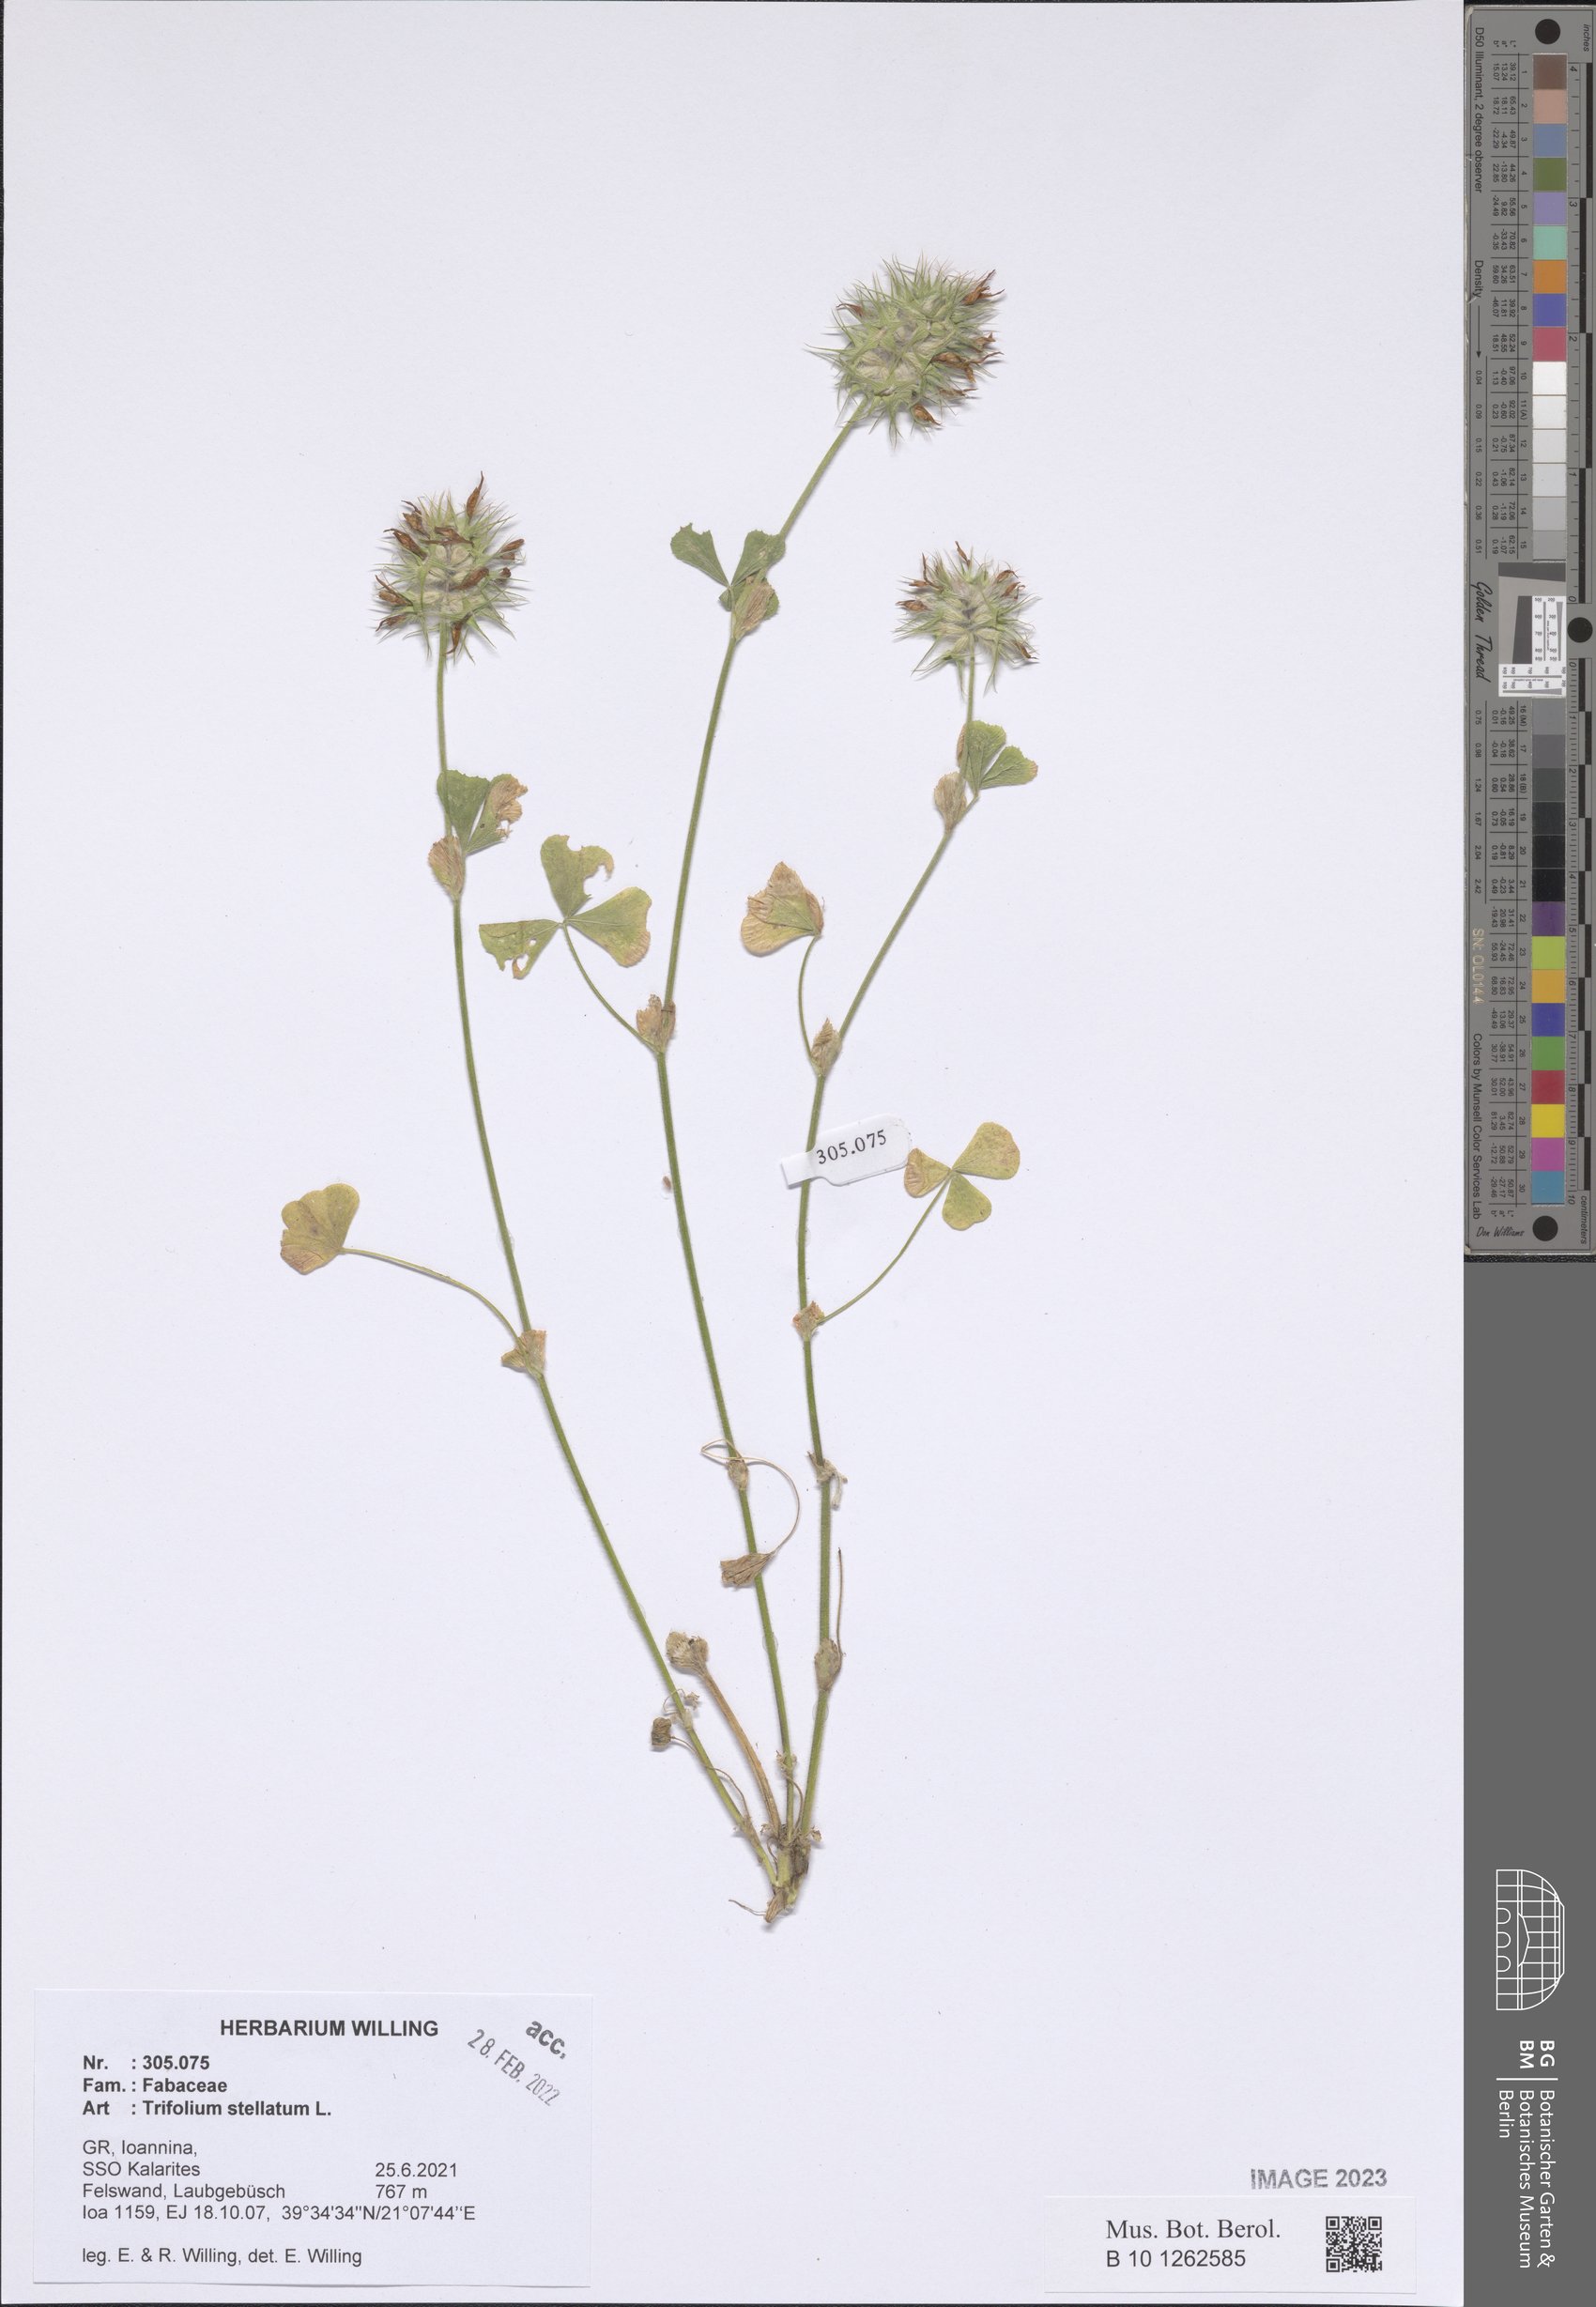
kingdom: Plantae
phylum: Tracheophyta
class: Magnoliopsida
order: Fabales
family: Fabaceae
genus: Trifolium
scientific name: Trifolium stellatum
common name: Starry clover
